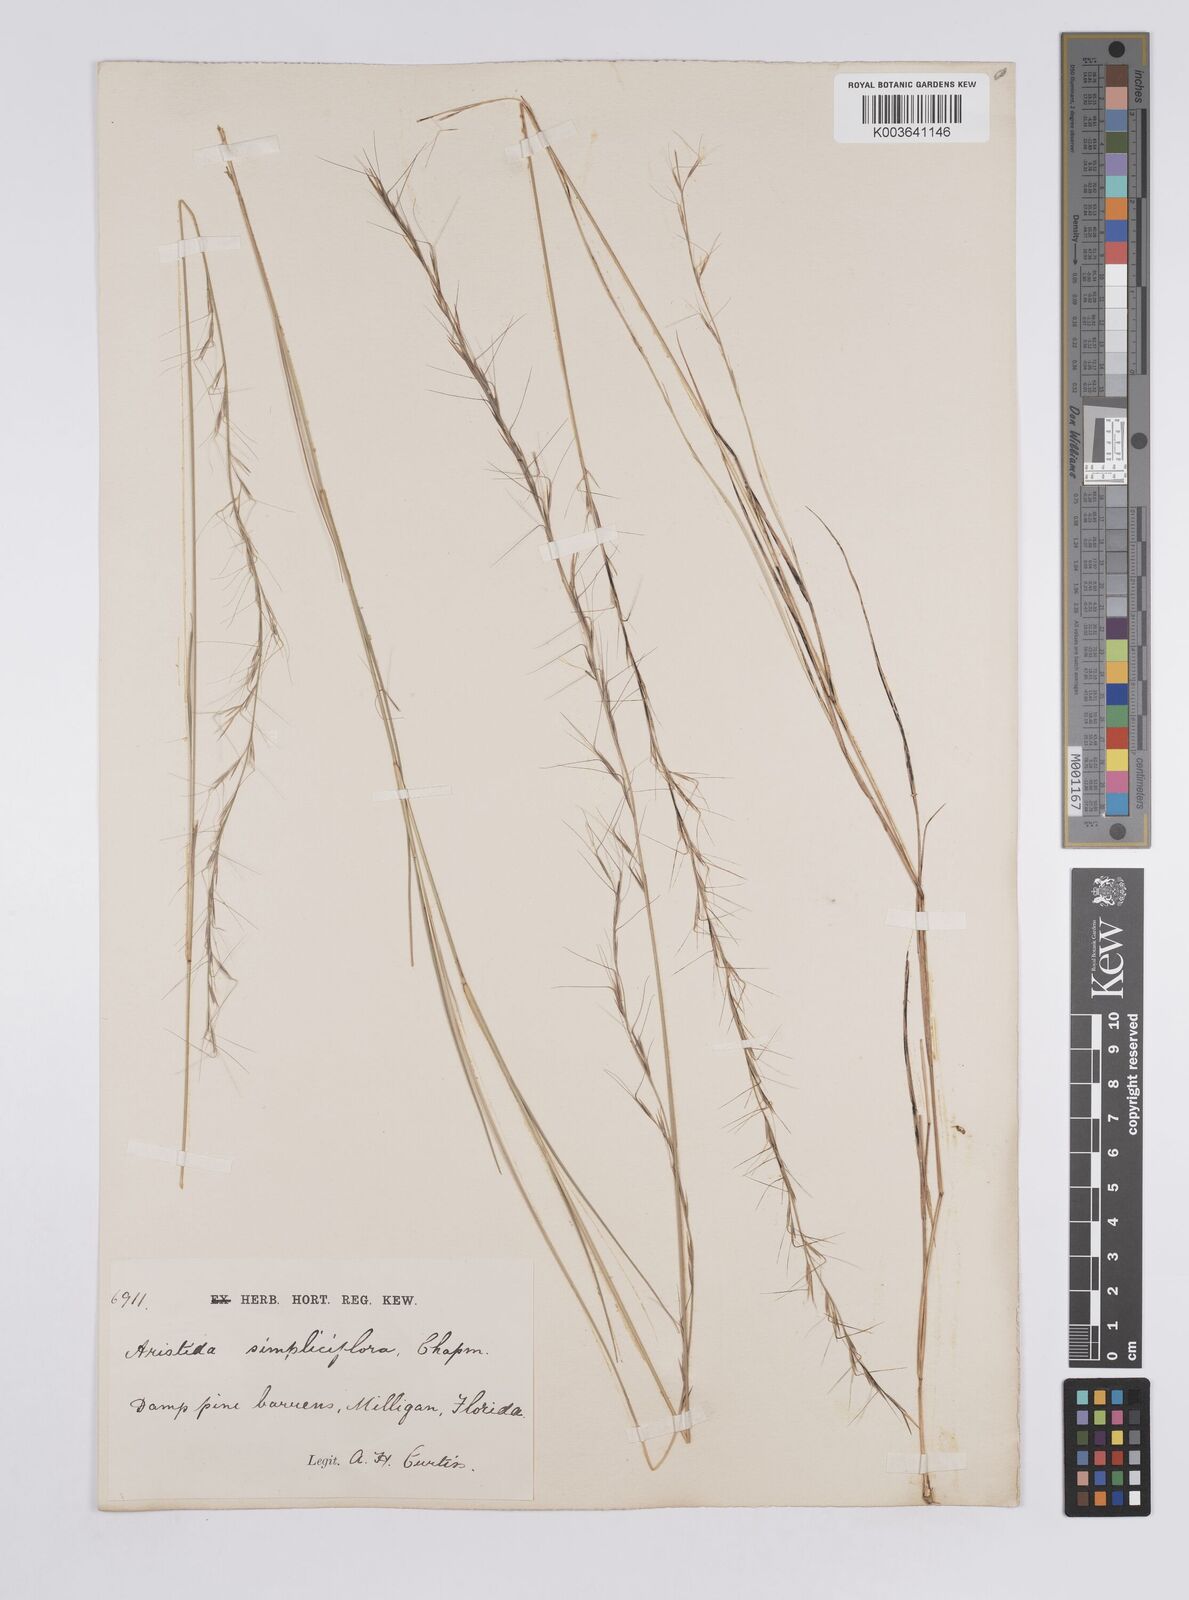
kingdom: Plantae
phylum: Tracheophyta
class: Liliopsida
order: Poales
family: Poaceae
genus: Aristida
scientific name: Aristida simpliciflora
